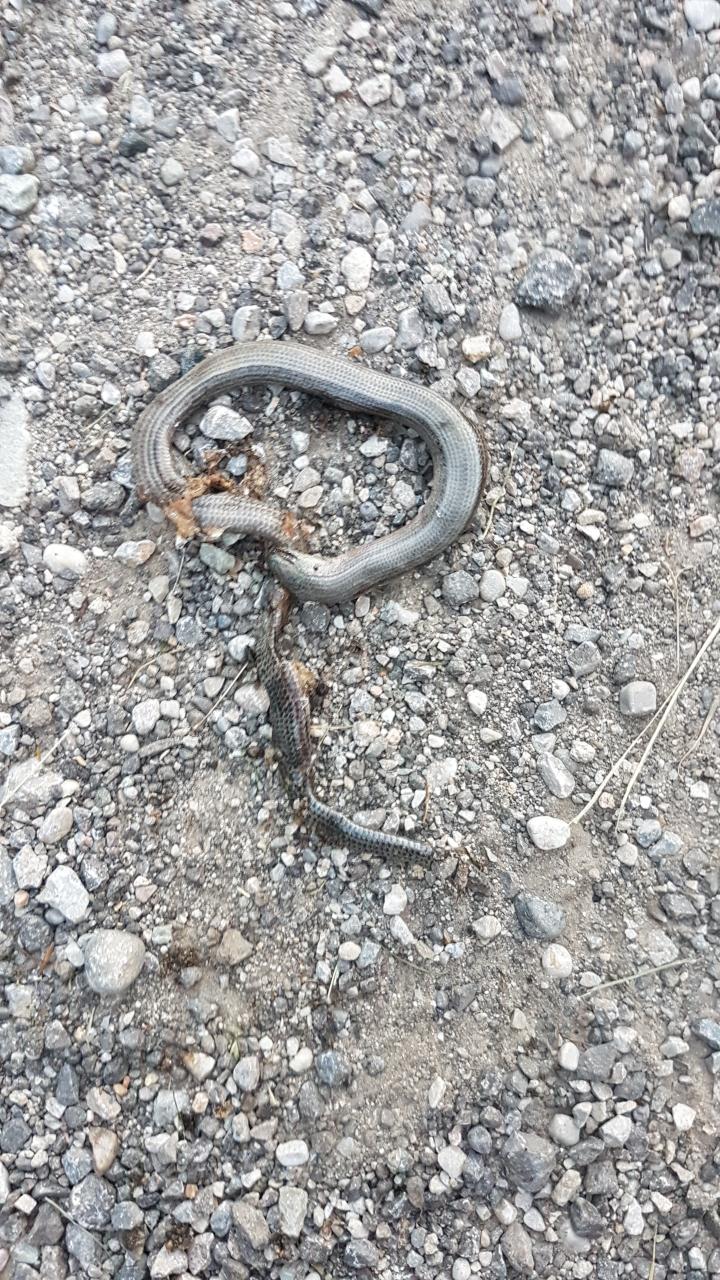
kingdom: Animalia
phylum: Chordata
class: Squamata
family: Anguidae
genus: Anguis
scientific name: Anguis fragilis
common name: Slow worm
